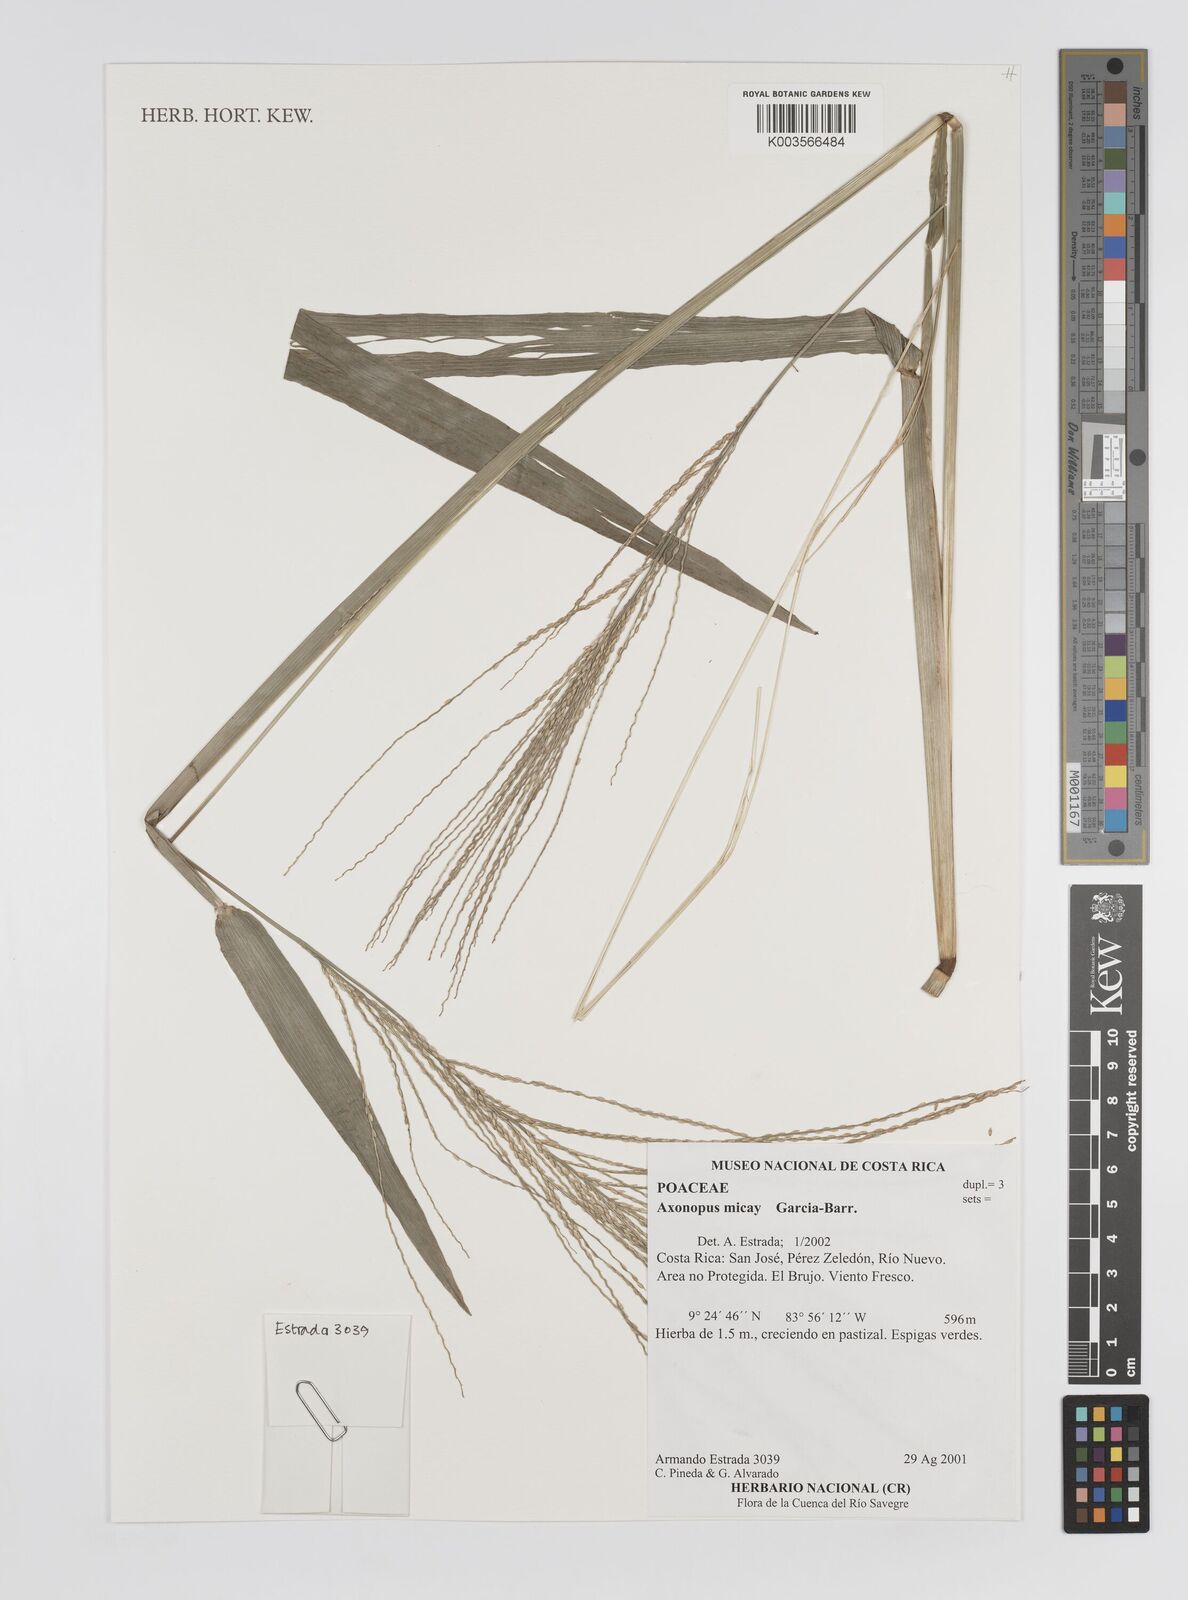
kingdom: Plantae
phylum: Tracheophyta
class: Liliopsida
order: Poales
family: Poaceae
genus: Axonopus
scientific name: Axonopus scoparius
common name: Imperial grass
